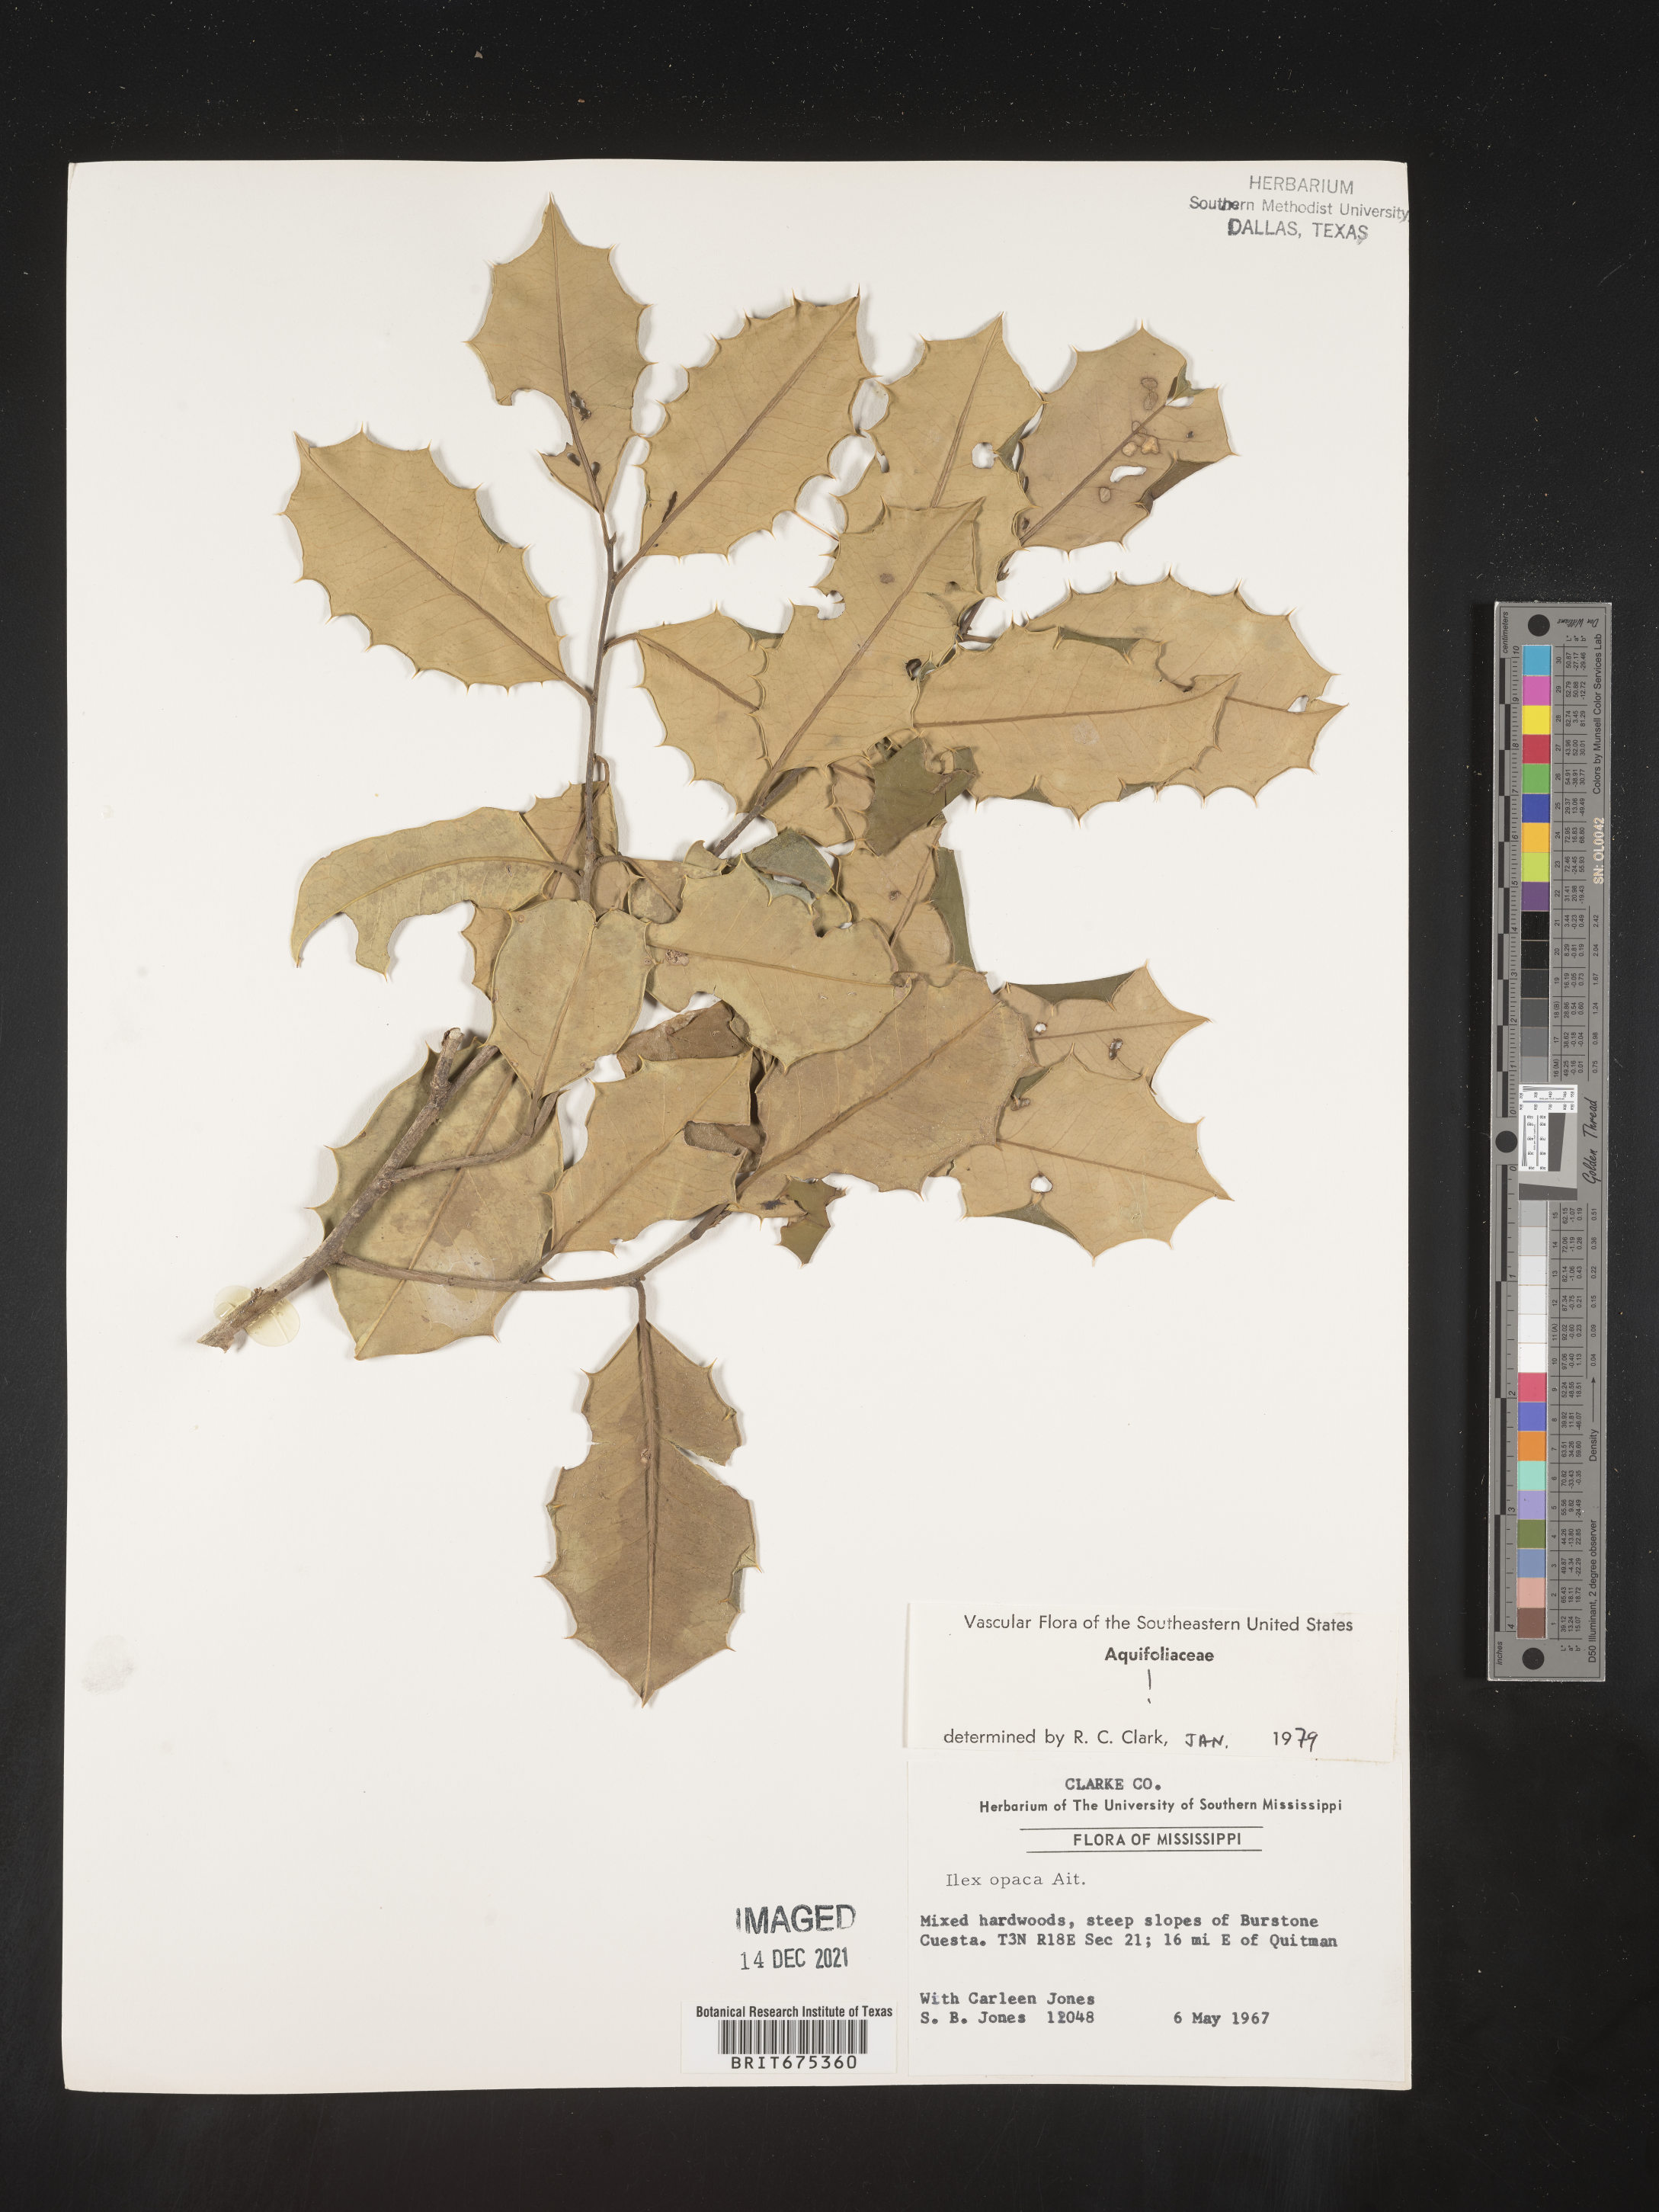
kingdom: Plantae
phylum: Tracheophyta
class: Magnoliopsida
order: Aquifoliales
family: Aquifoliaceae
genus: Ilex
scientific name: Ilex opaca
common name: American holly
